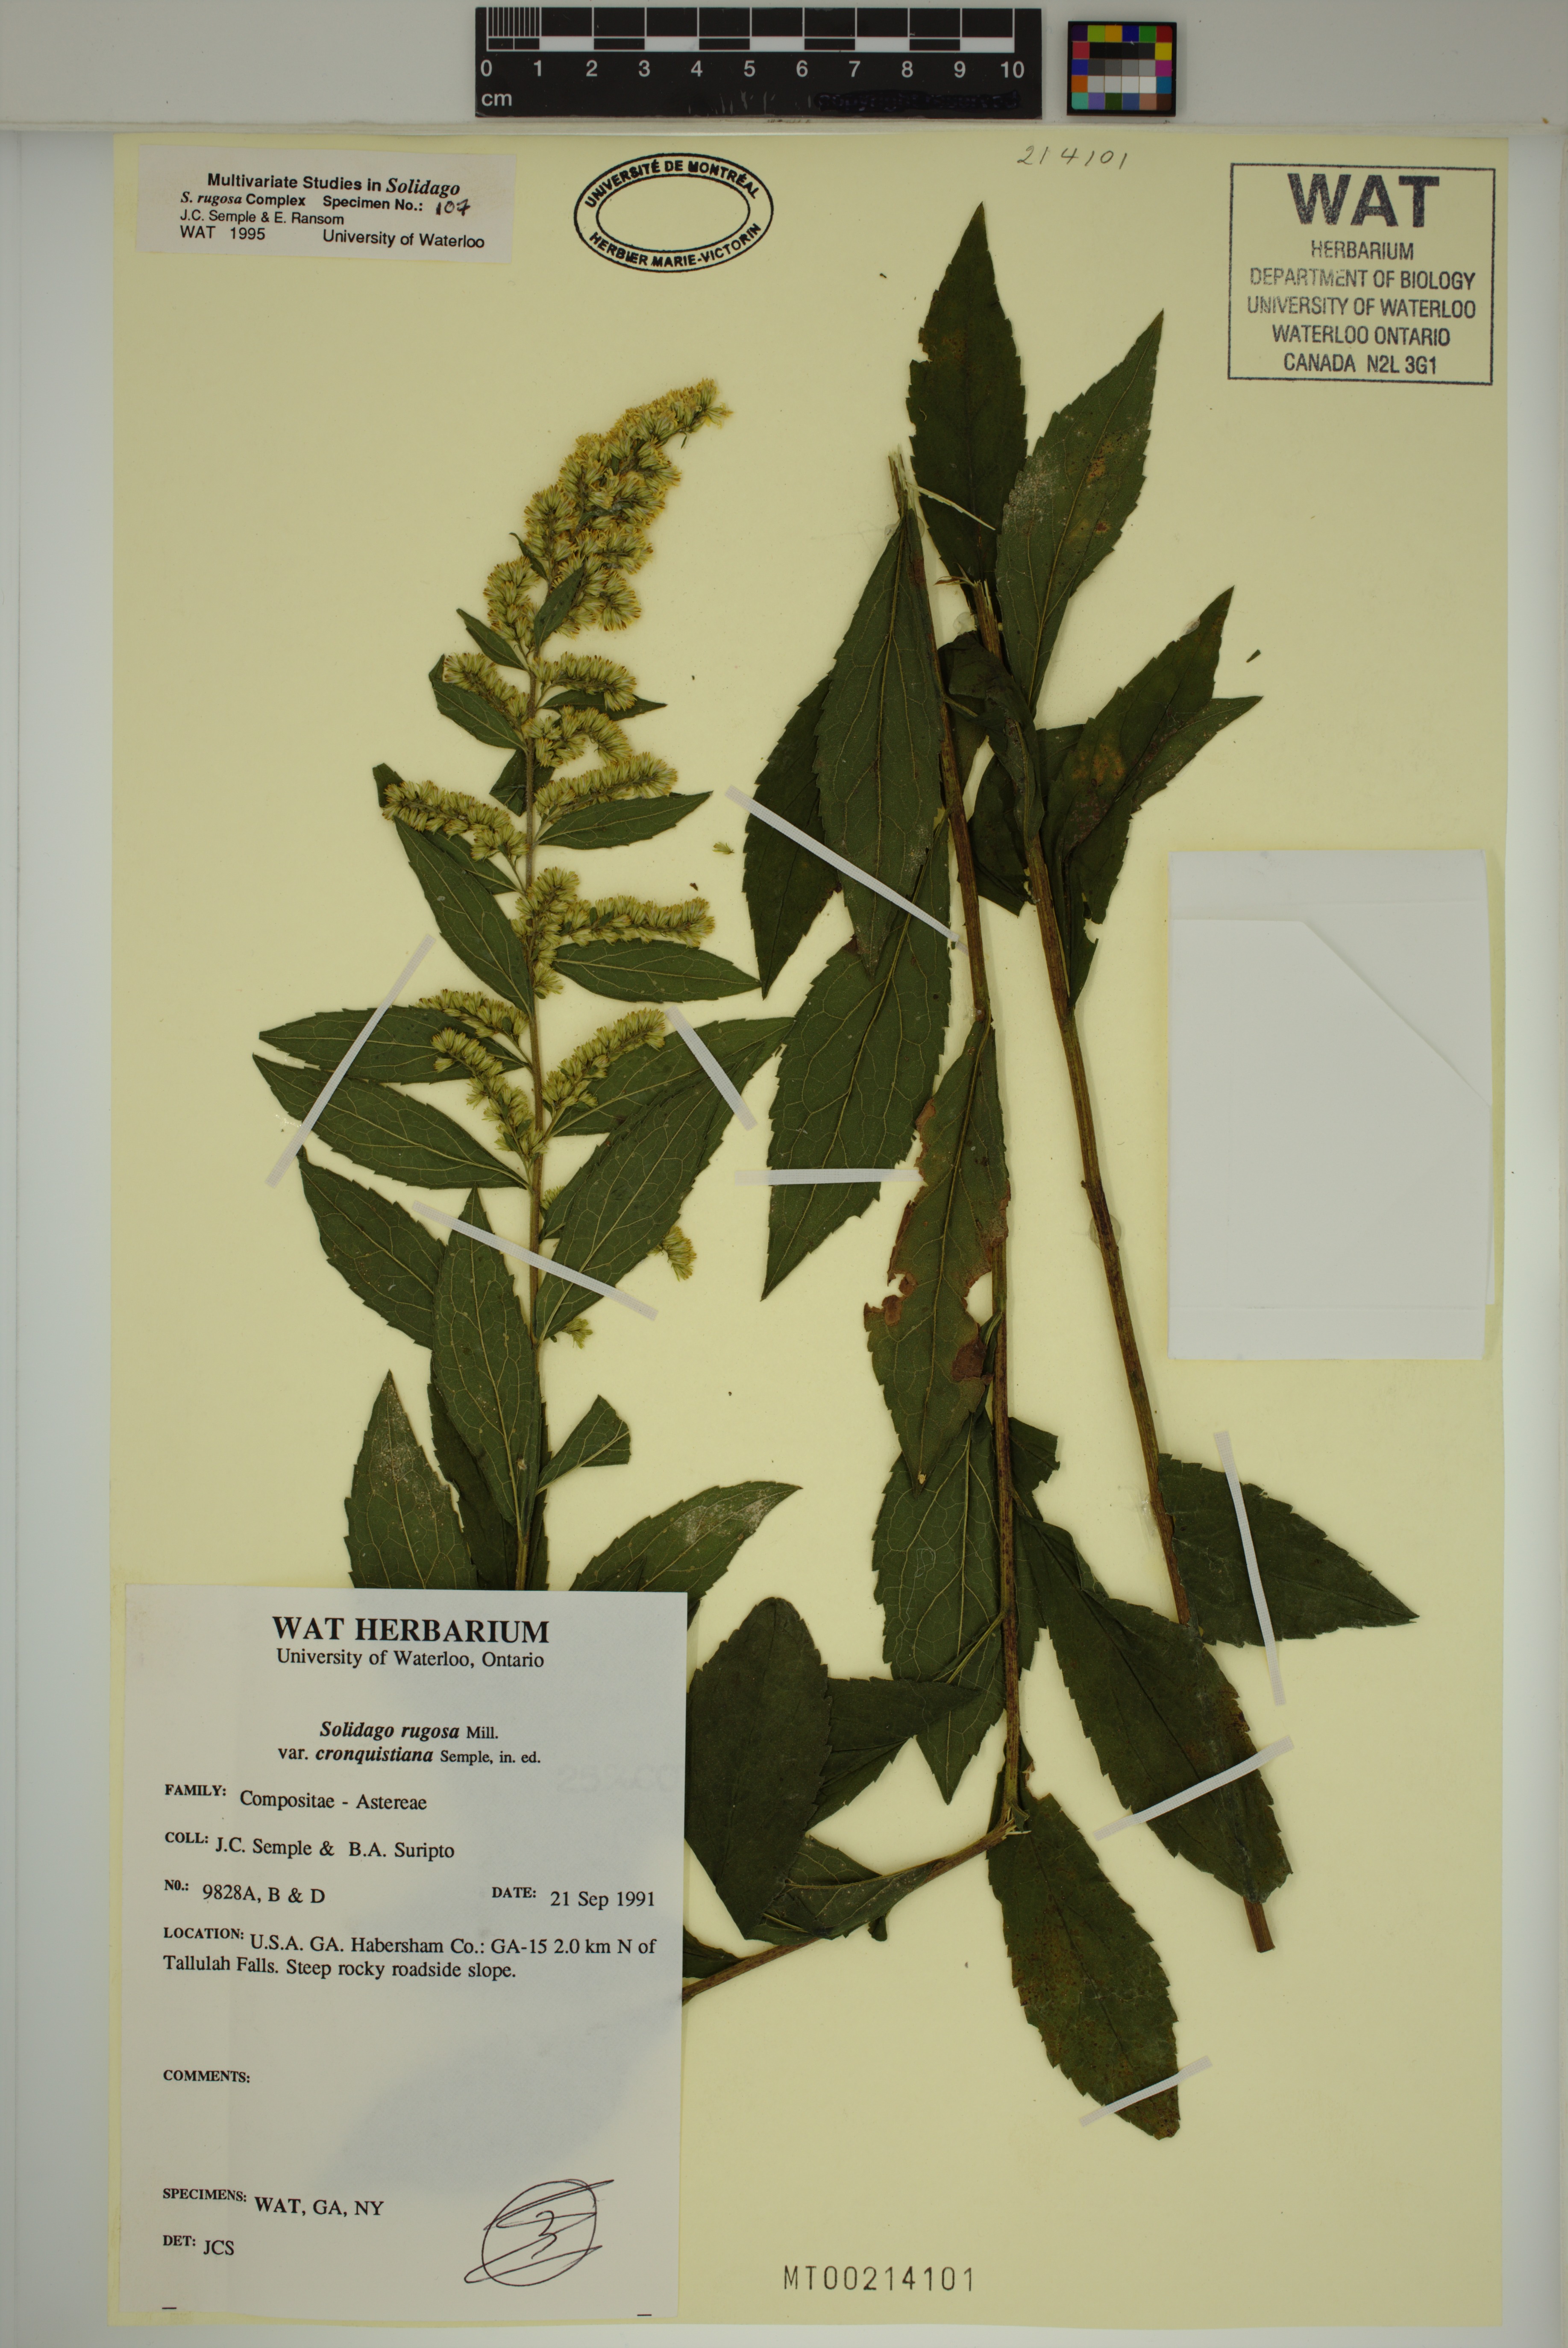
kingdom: Plantae
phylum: Tracheophyta
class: Magnoliopsida
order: Asterales
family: Asteraceae
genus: Solidago
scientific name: Solidago rugosa
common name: Rough-stemmed goldenrod
